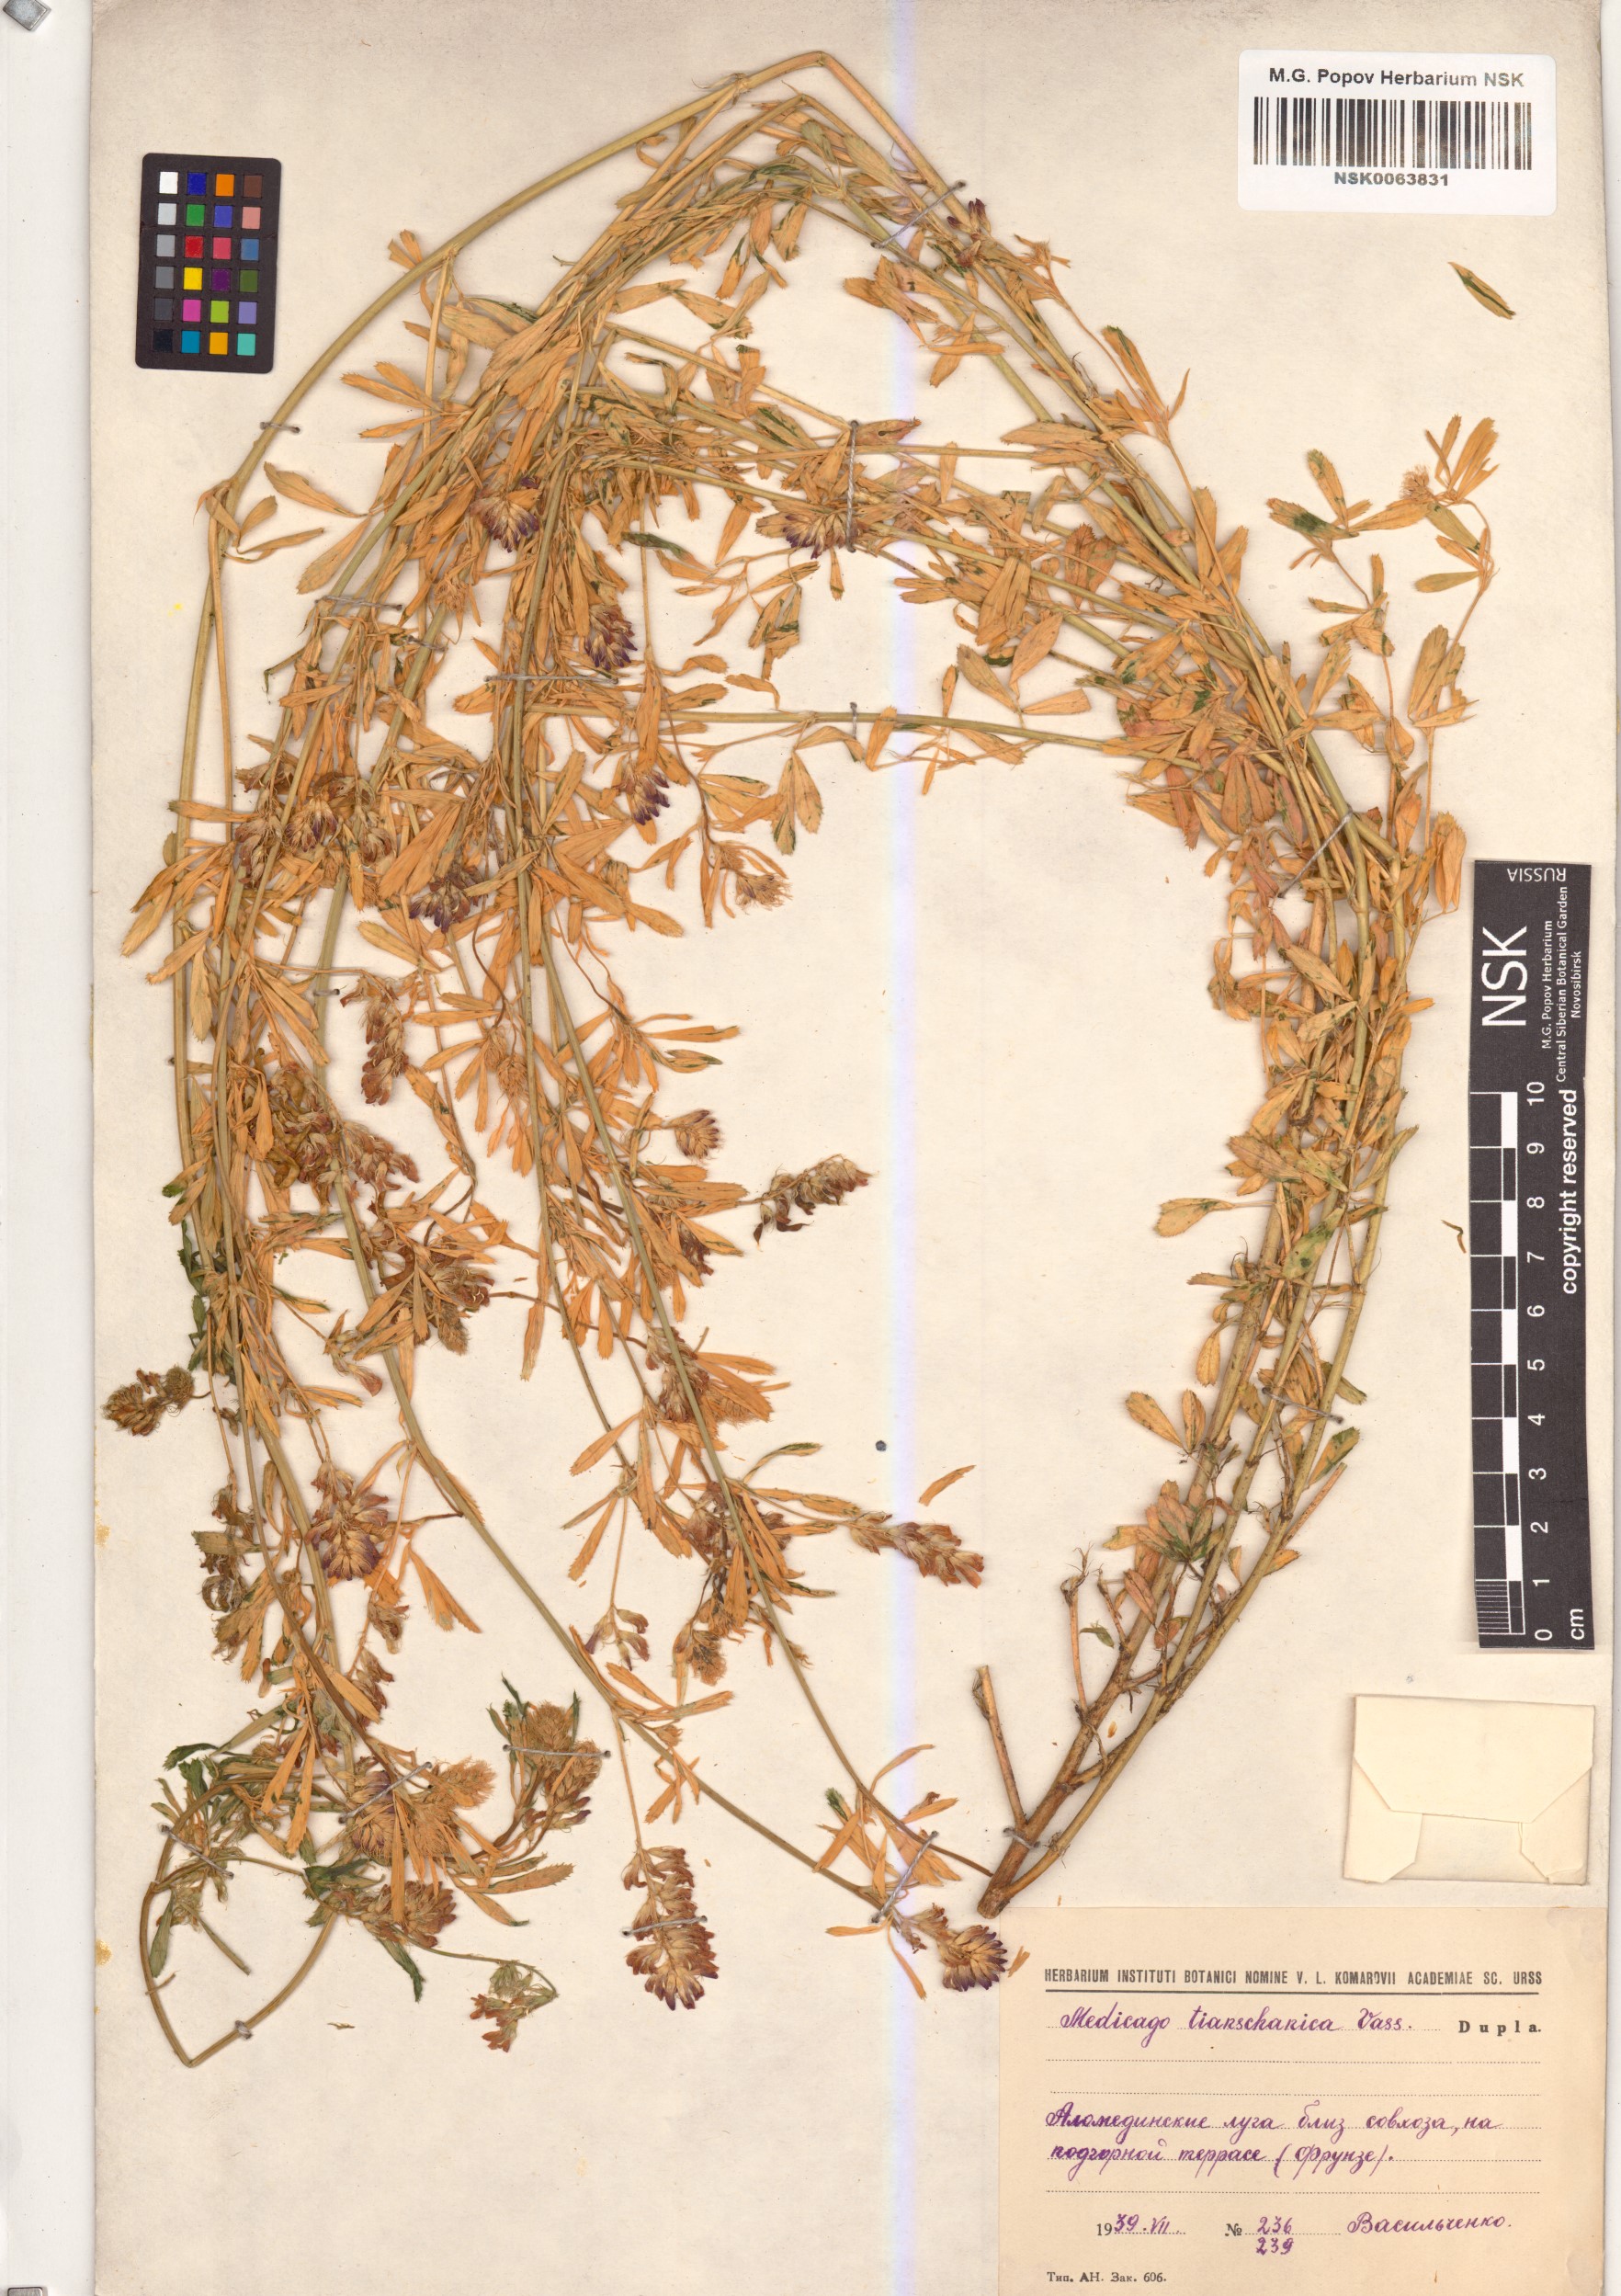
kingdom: Plantae
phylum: Tracheophyta
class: Magnoliopsida
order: Fabales
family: Fabaceae
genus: Medicago
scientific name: Medicago varia
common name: Sand lucerne
